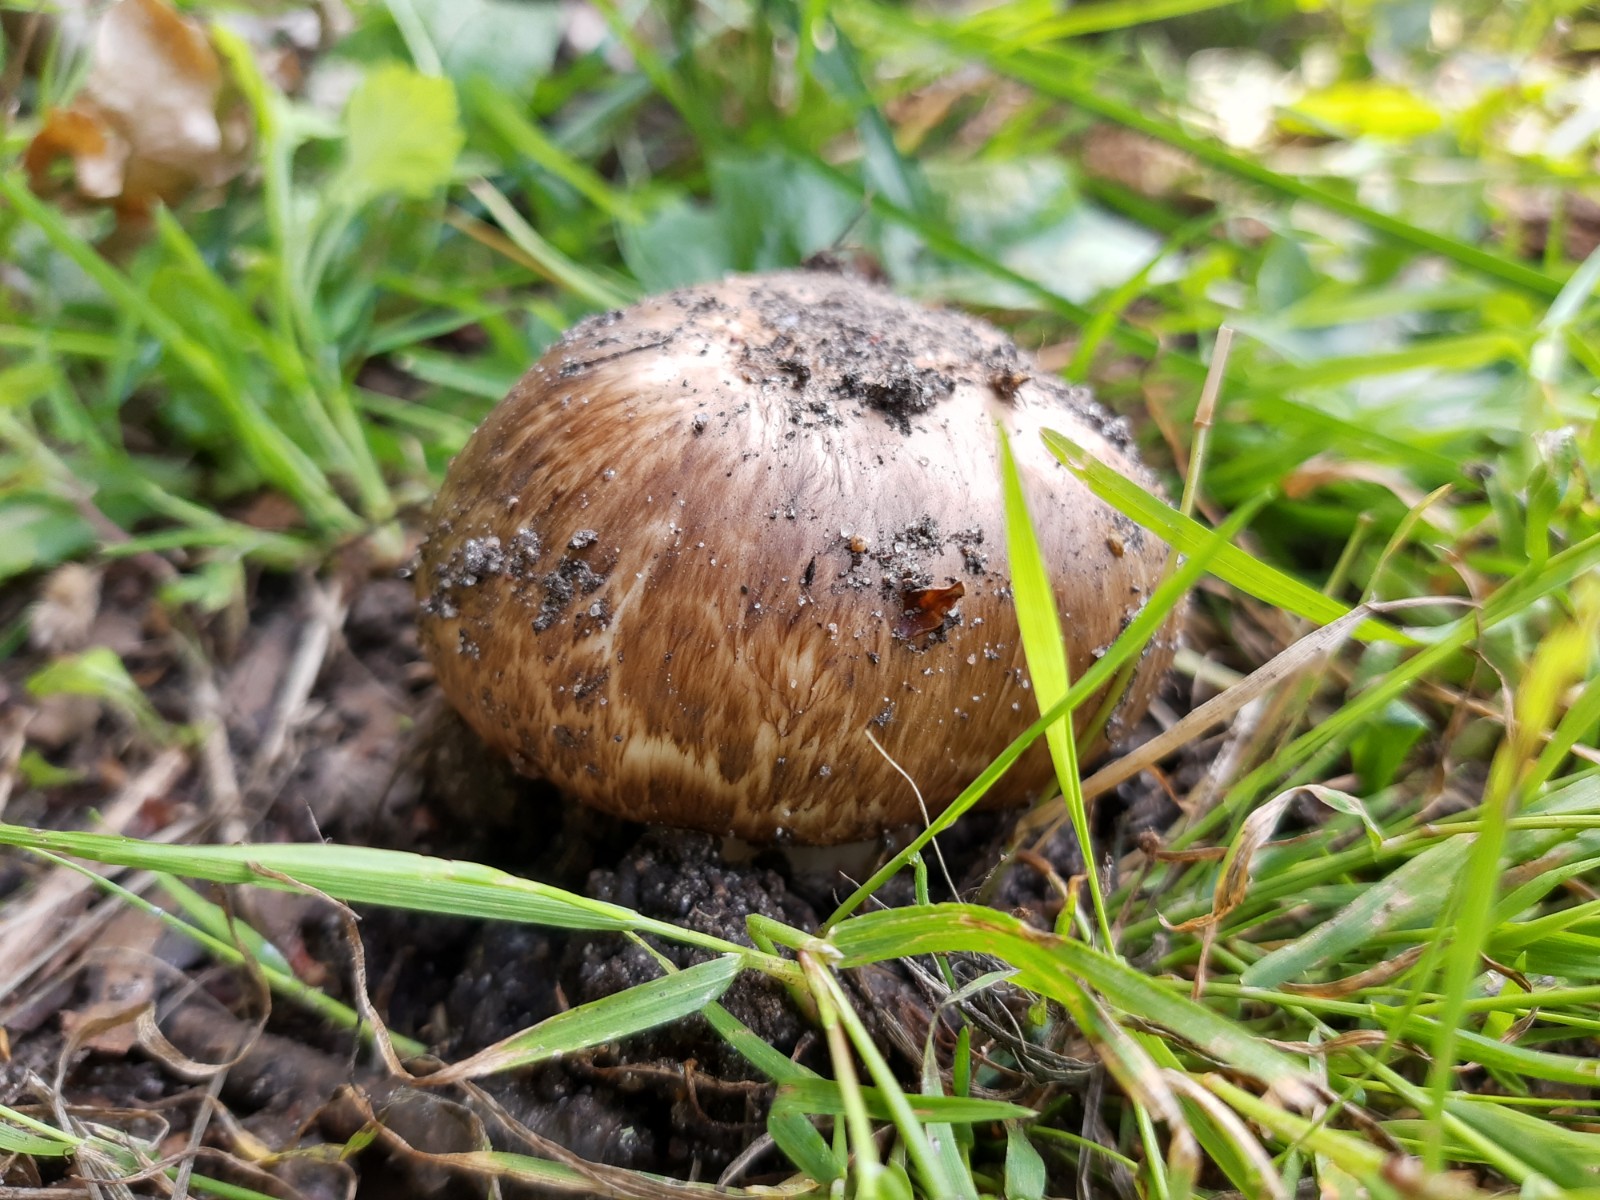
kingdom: Fungi
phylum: Basidiomycota
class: Agaricomycetes
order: Agaricales
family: Agaricaceae
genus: Agaricus
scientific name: Agaricus subperonatus
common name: knippe-champignon
